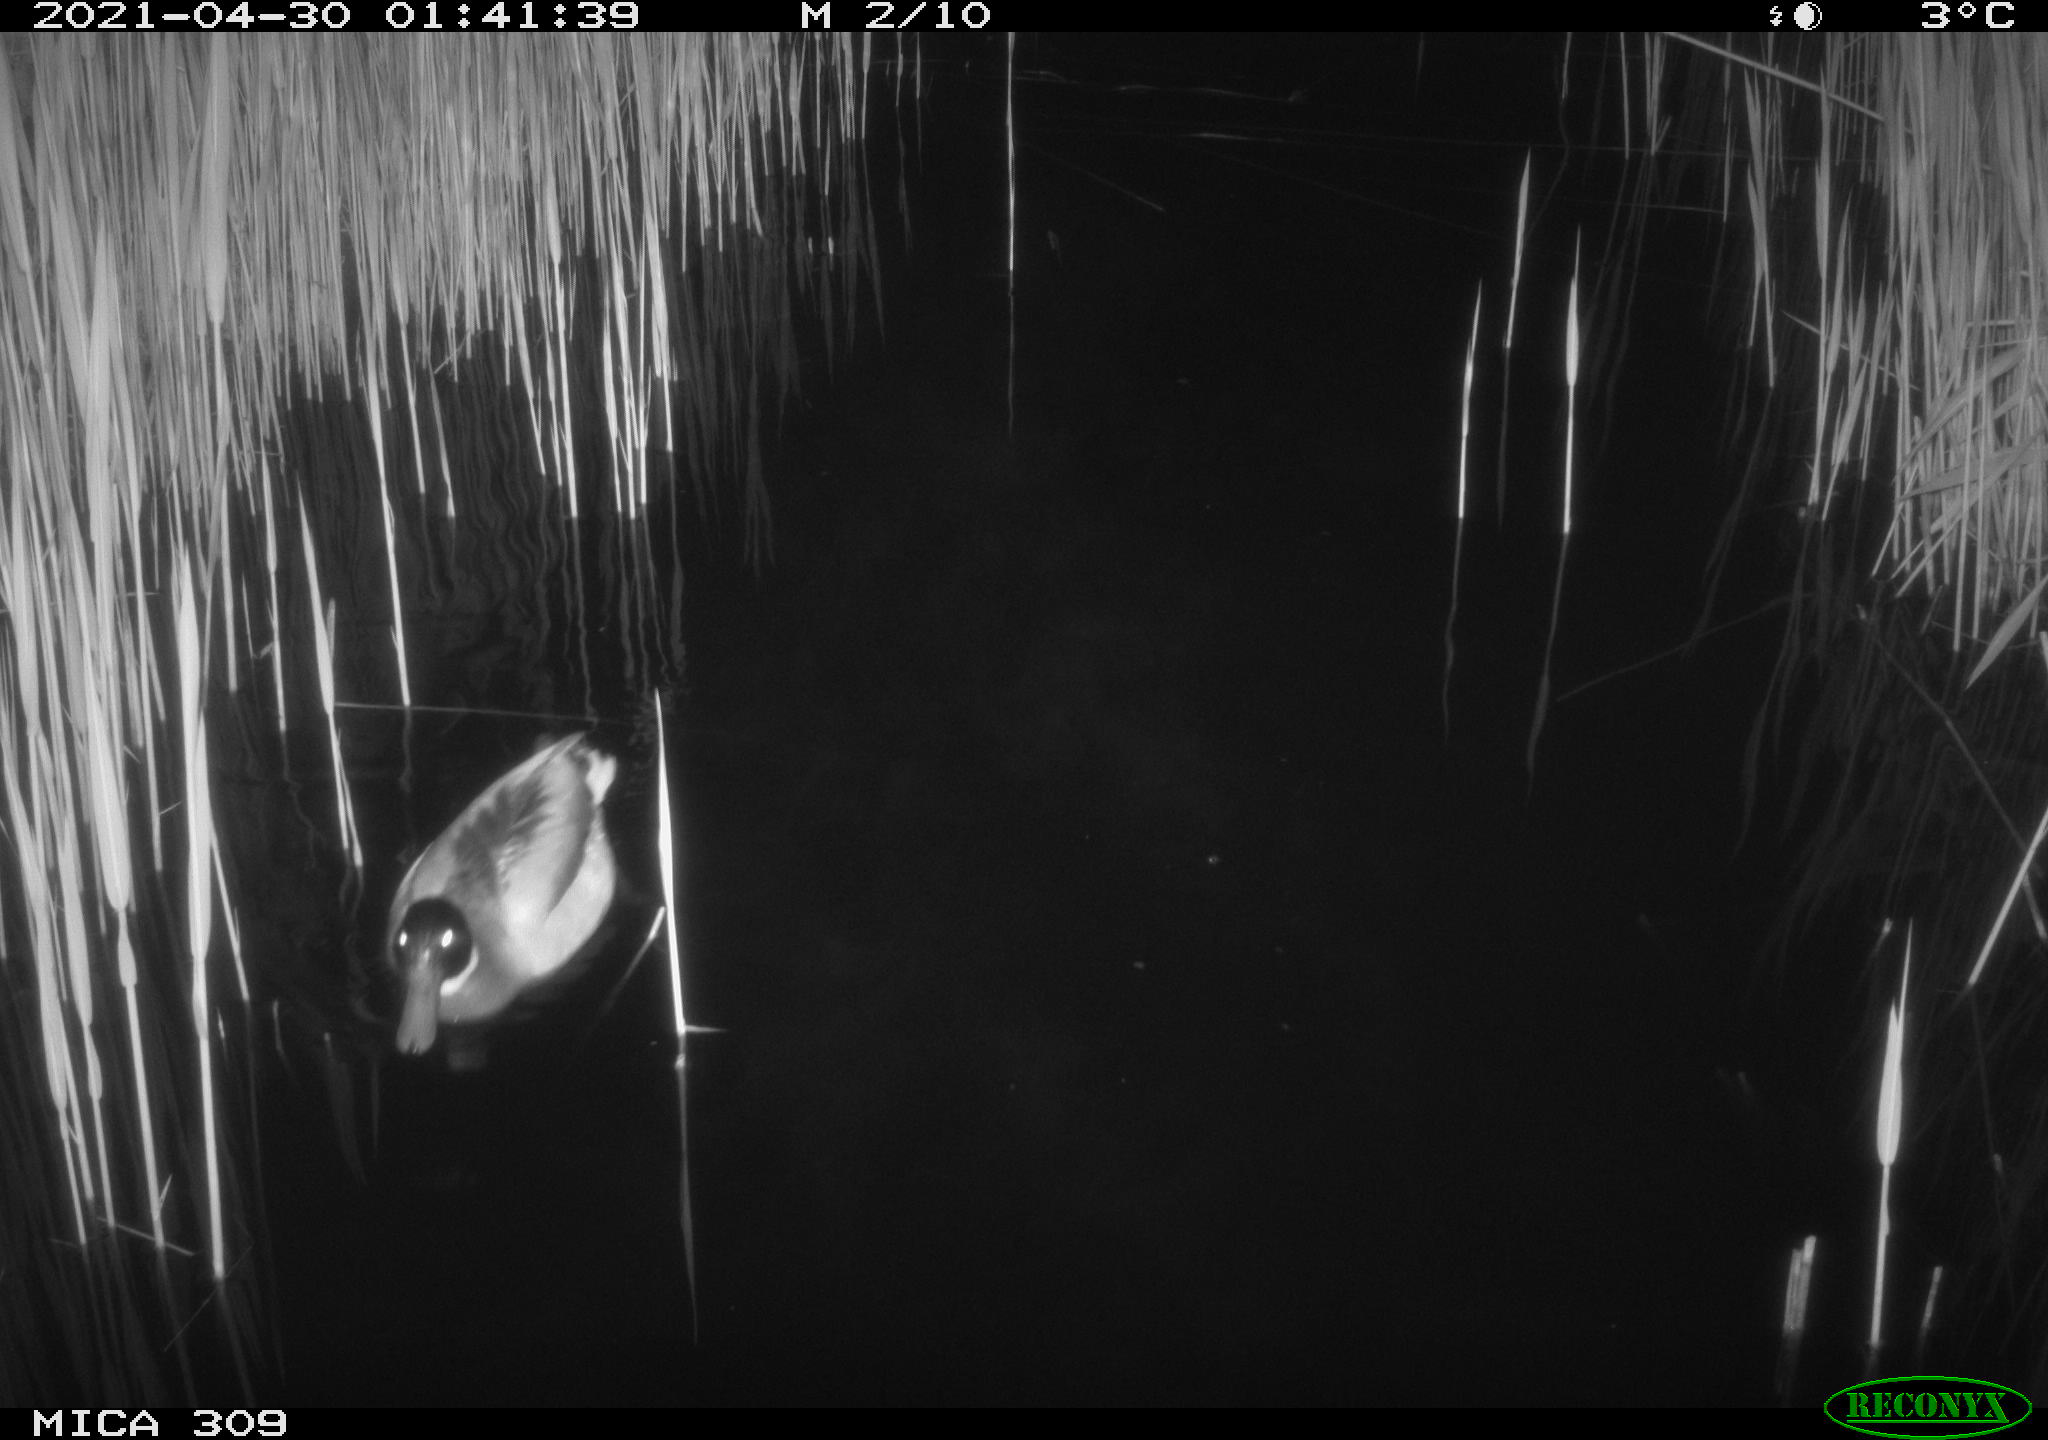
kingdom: Animalia
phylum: Chordata
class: Aves
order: Anseriformes
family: Anatidae
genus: Anas
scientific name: Anas platyrhynchos
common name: Mallard
